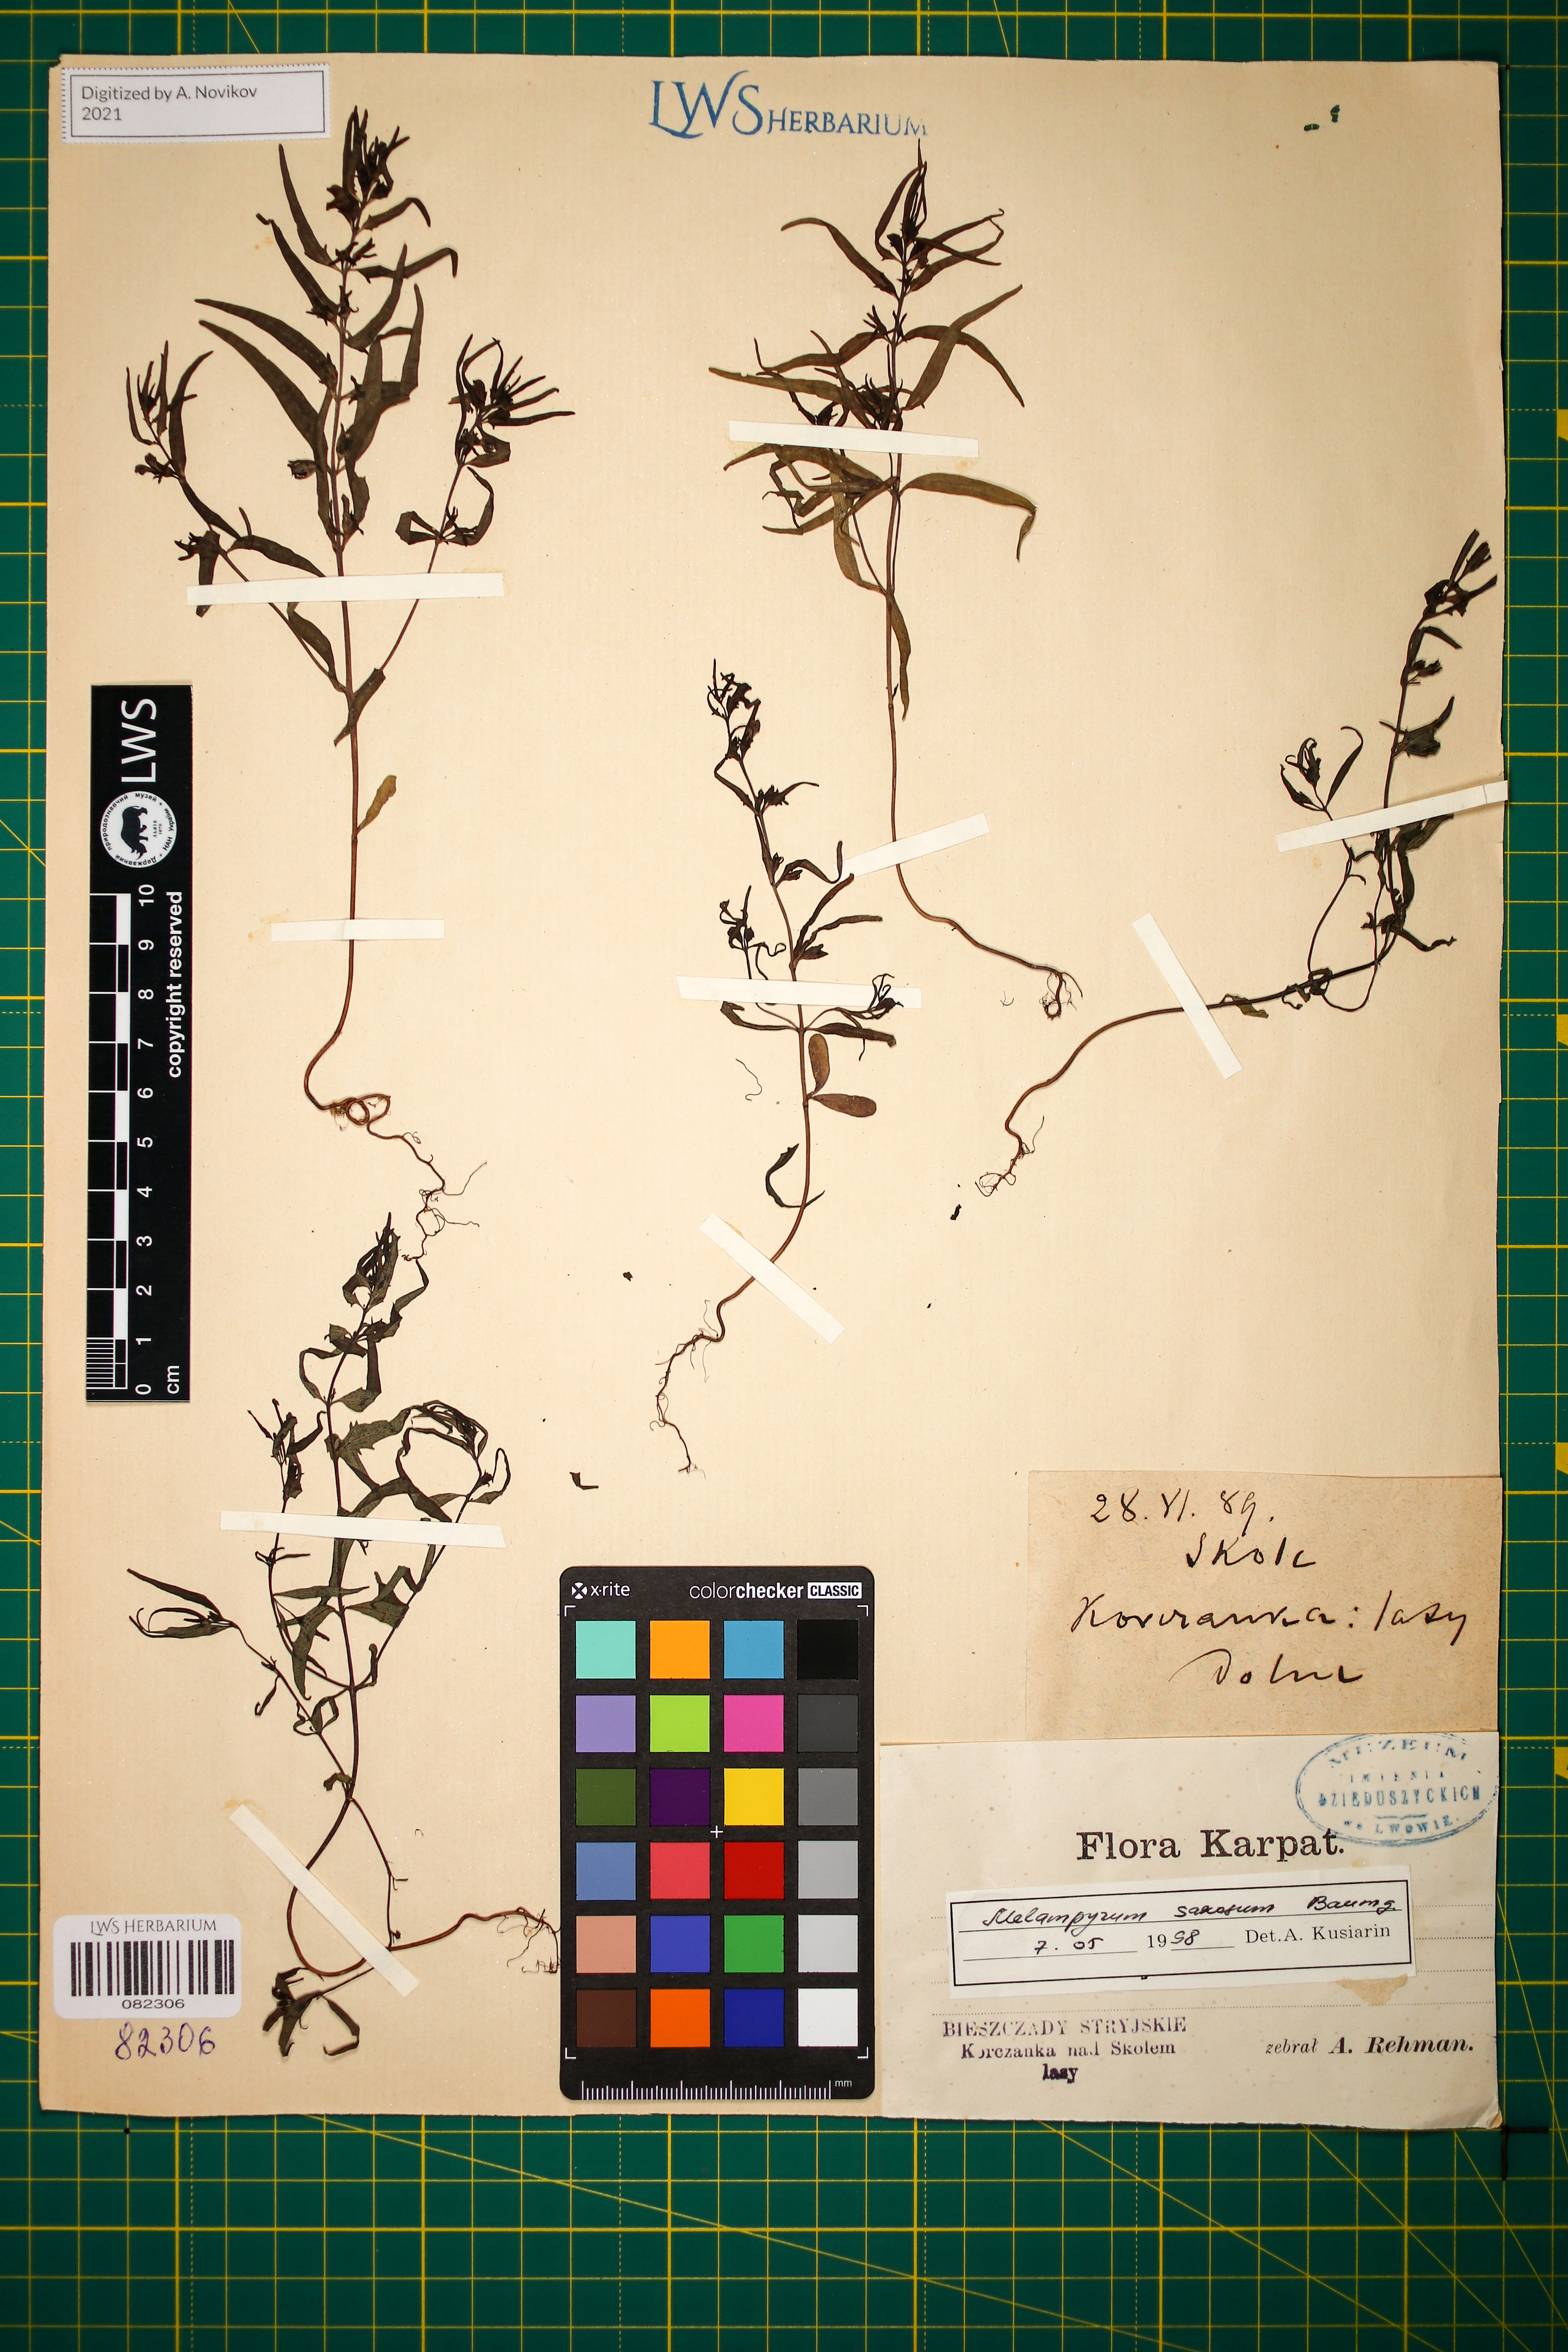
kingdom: Plantae
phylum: Tracheophyta
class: Magnoliopsida
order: Lamiales
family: Orobanchaceae
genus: Melampyrum
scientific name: Melampyrum saxosum
